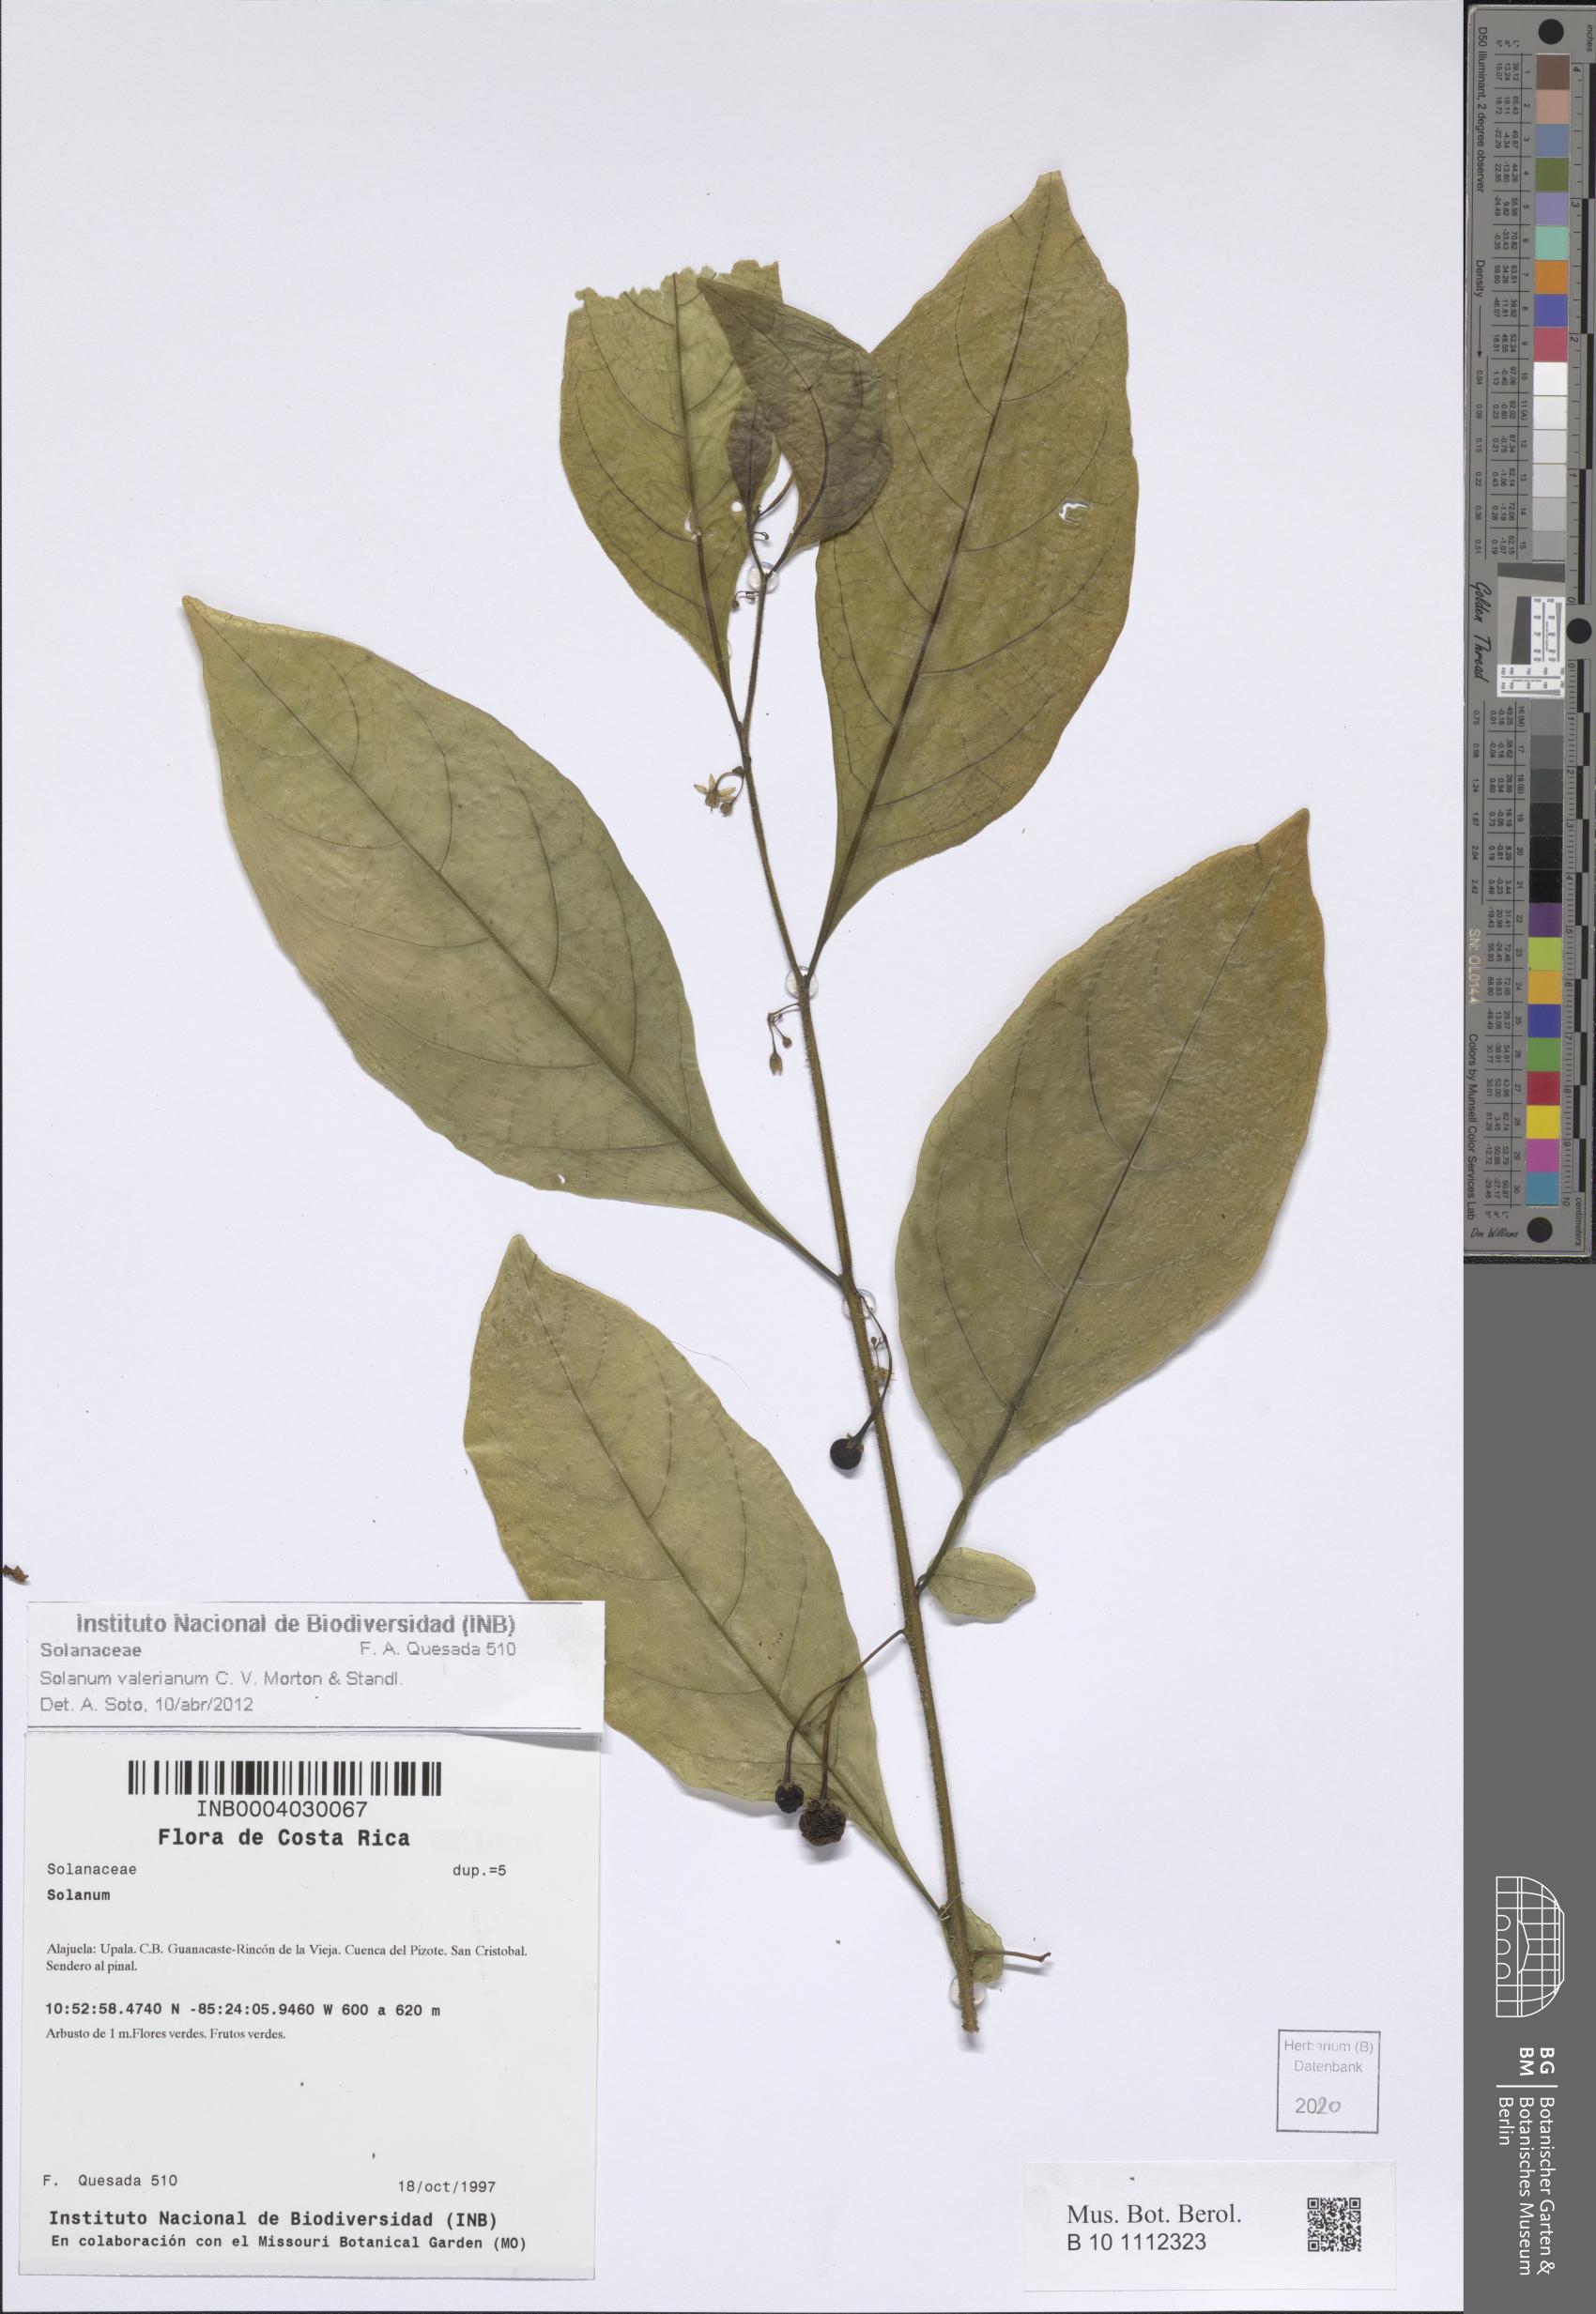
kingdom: Plantae
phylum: Tracheophyta
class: Magnoliopsida
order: Solanales
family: Solanaceae
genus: Solanum
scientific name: Solanum valerianum
